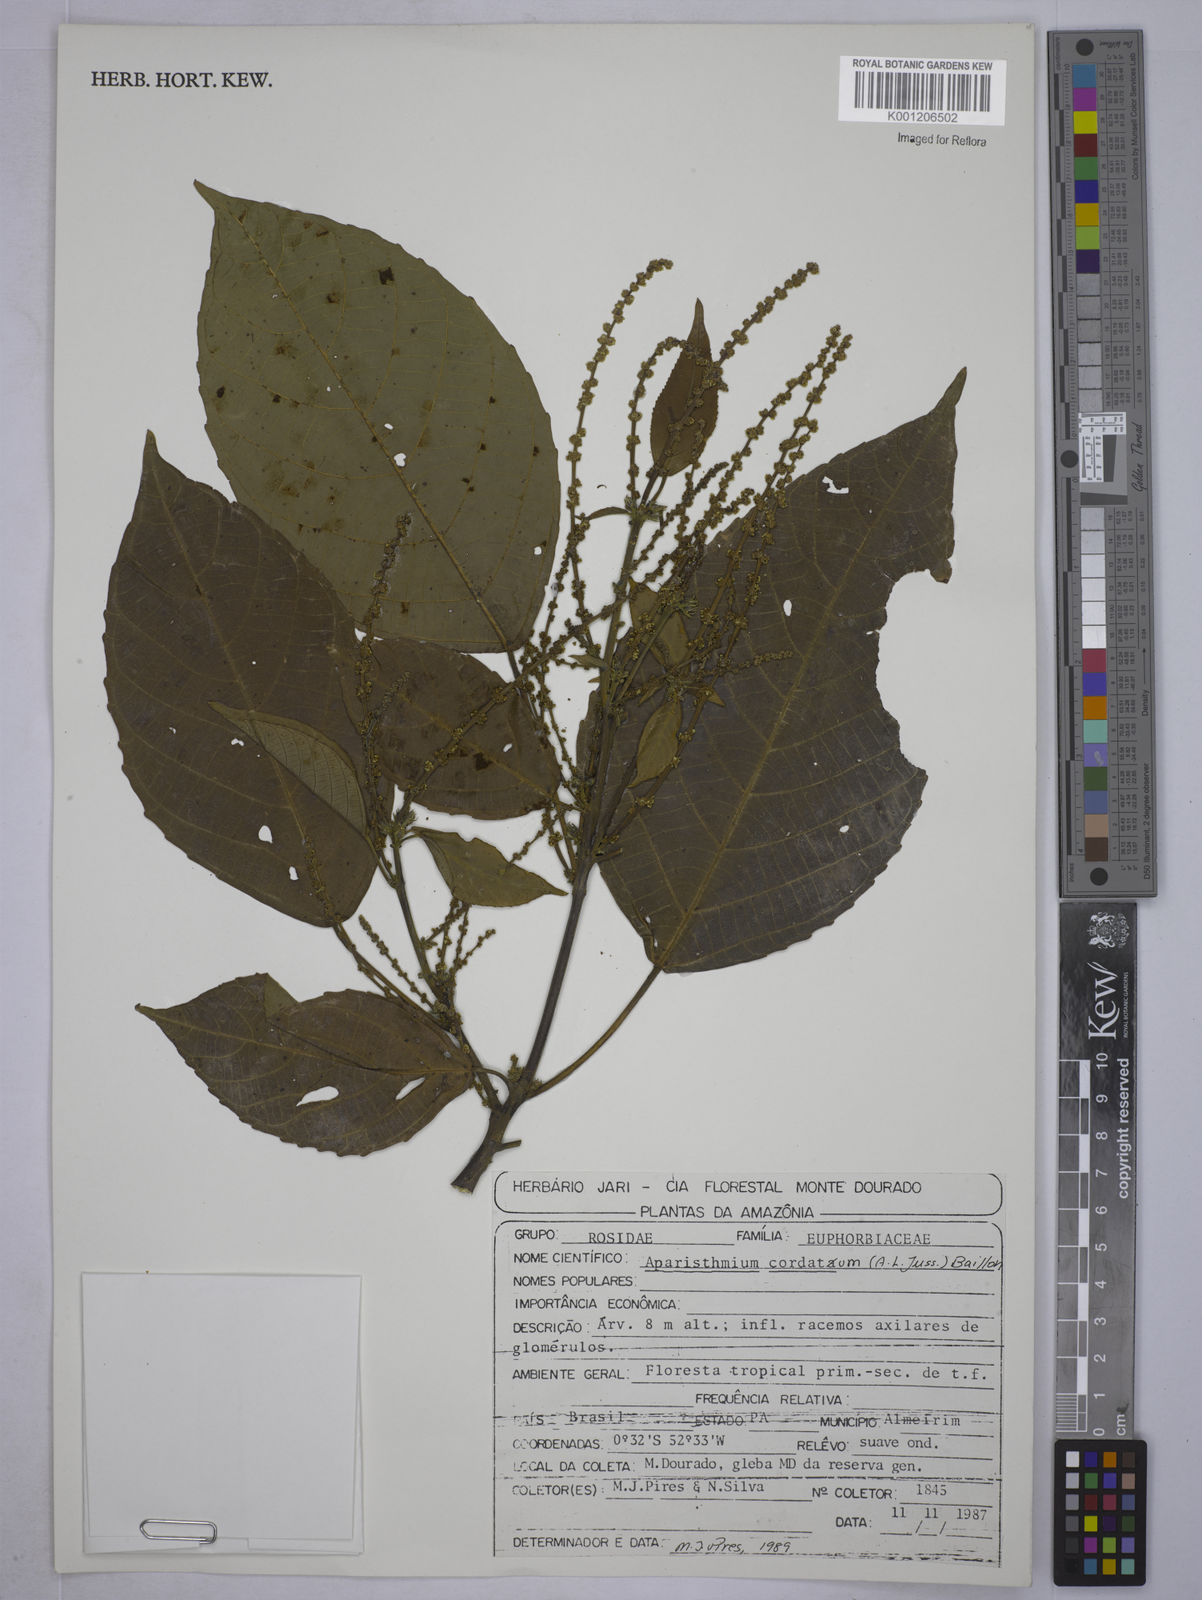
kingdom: Plantae
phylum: Tracheophyta
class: Magnoliopsida
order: Malpighiales
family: Euphorbiaceae
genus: Aparisthmium
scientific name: Aparisthmium cordatum
